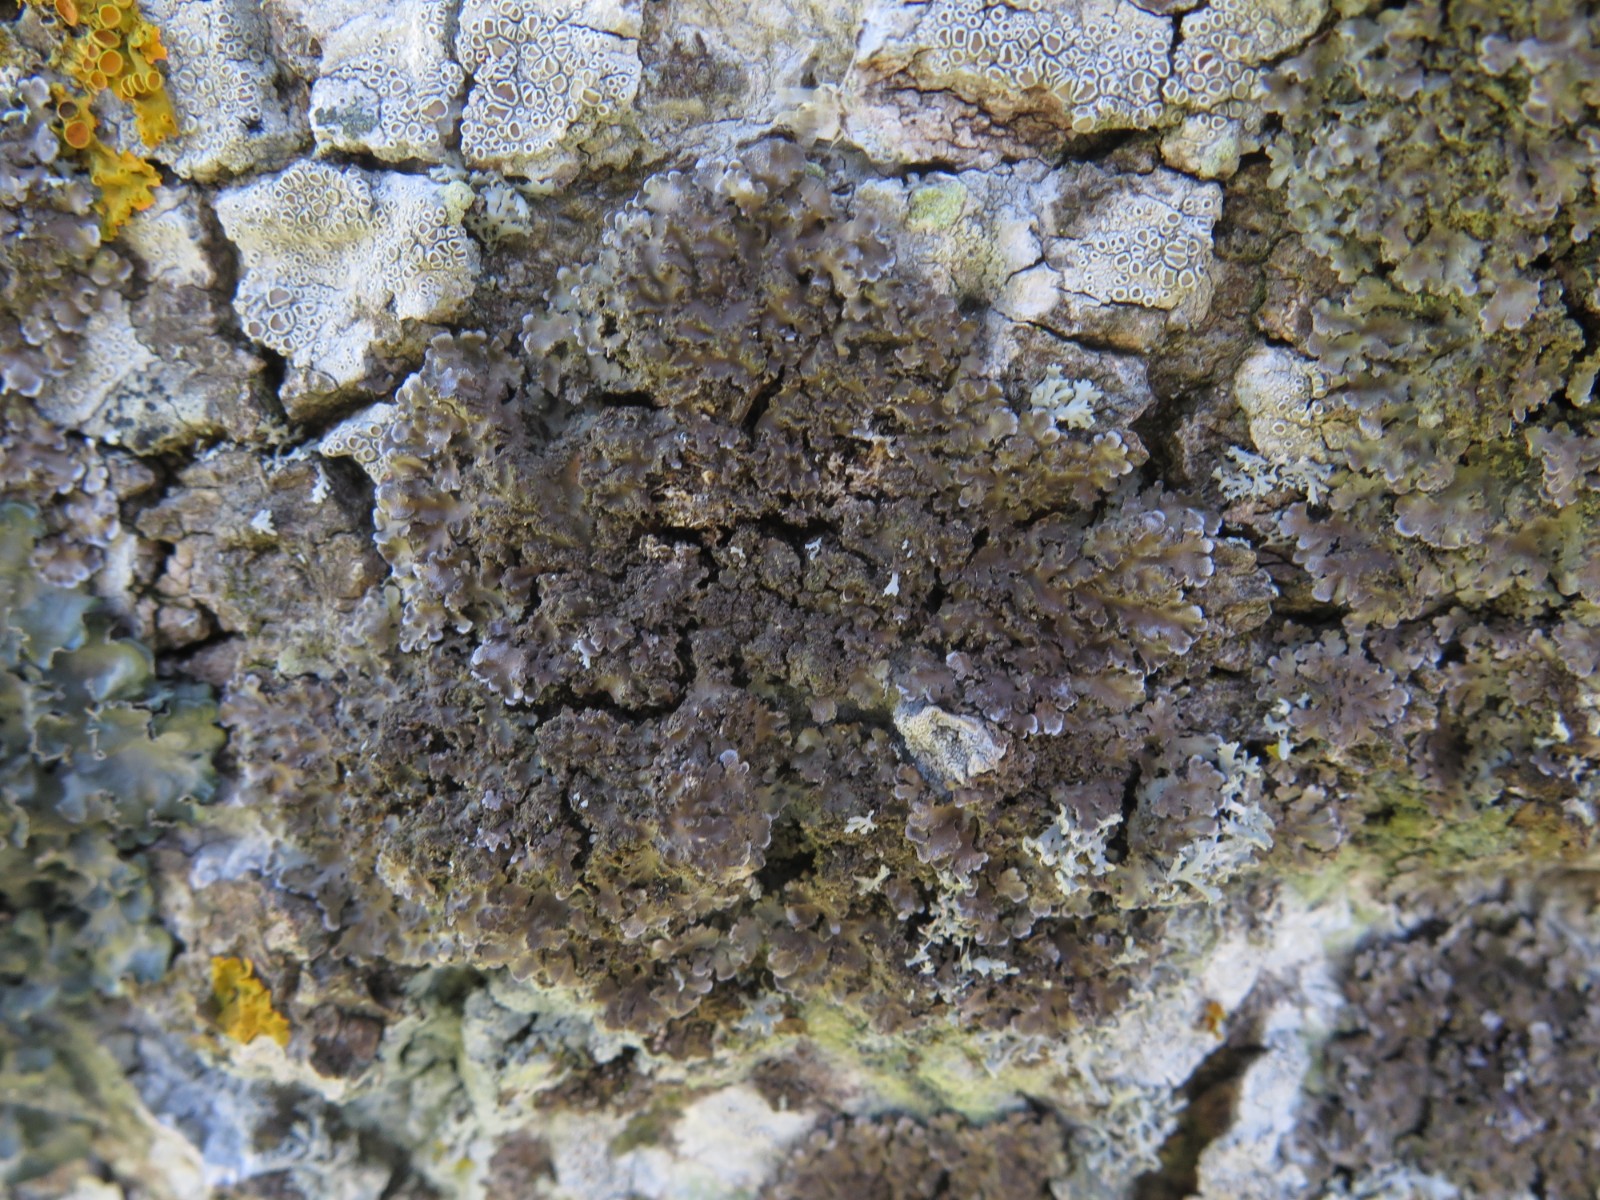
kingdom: Fungi
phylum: Ascomycota
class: Lecanoromycetes
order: Lecanorales
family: Lecanoraceae
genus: Glaucomaria
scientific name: Glaucomaria carpinea
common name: hviddugget kantskivelav
